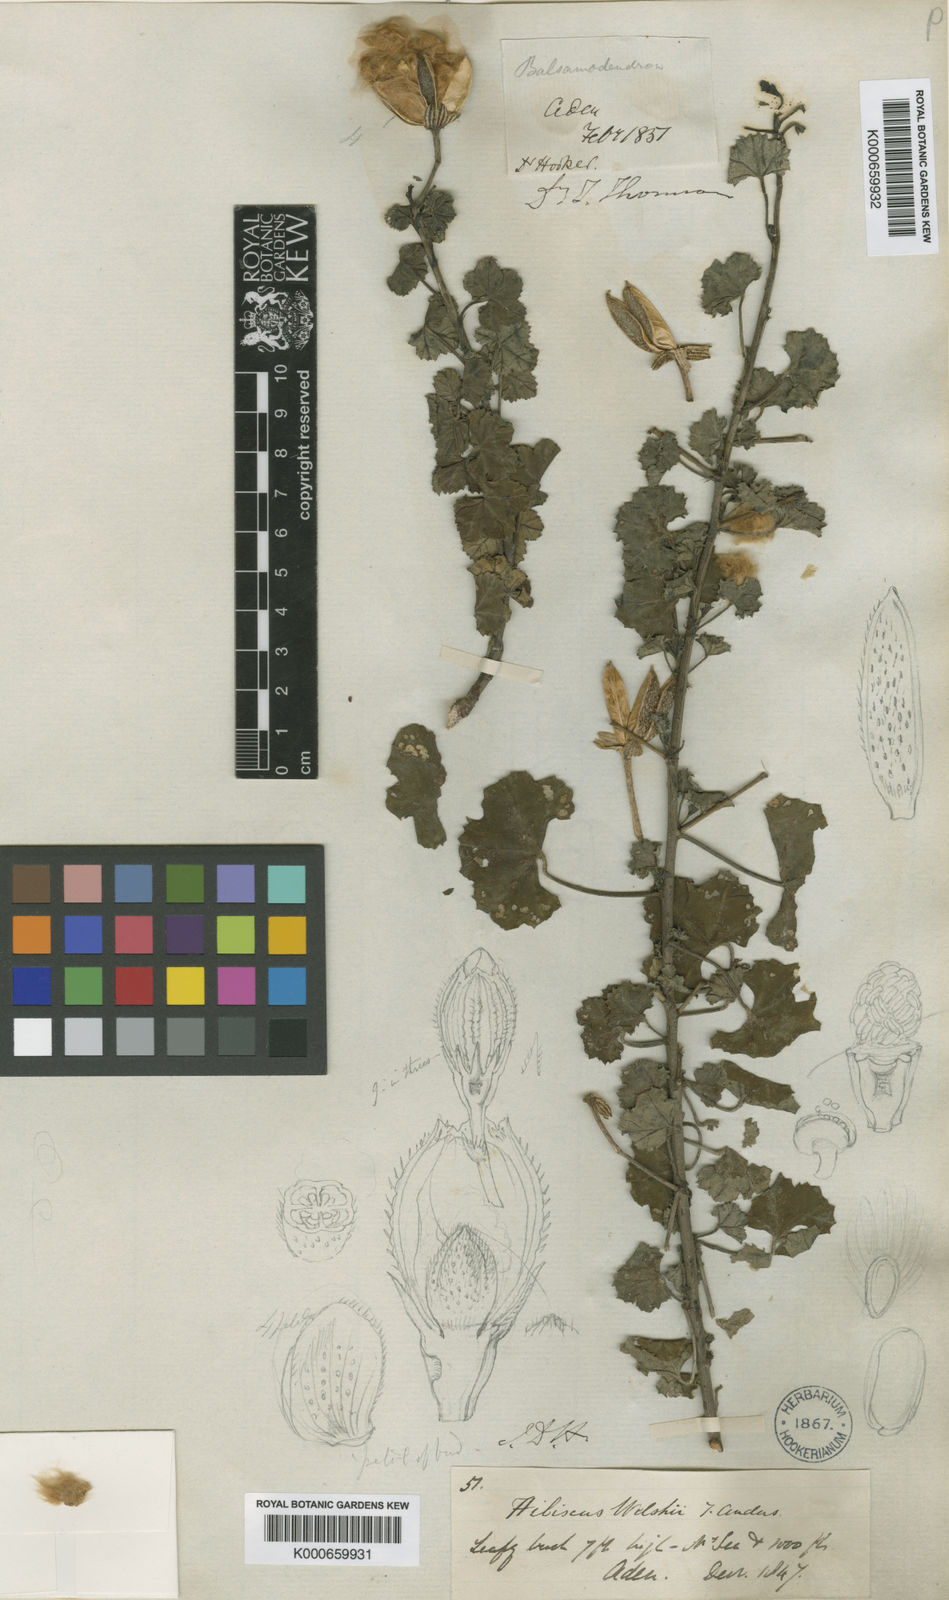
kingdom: Plantae
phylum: Tracheophyta
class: Magnoliopsida
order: Malvales
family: Malvaceae
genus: Cienfuegosia
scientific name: Cienfuegosia welshii
